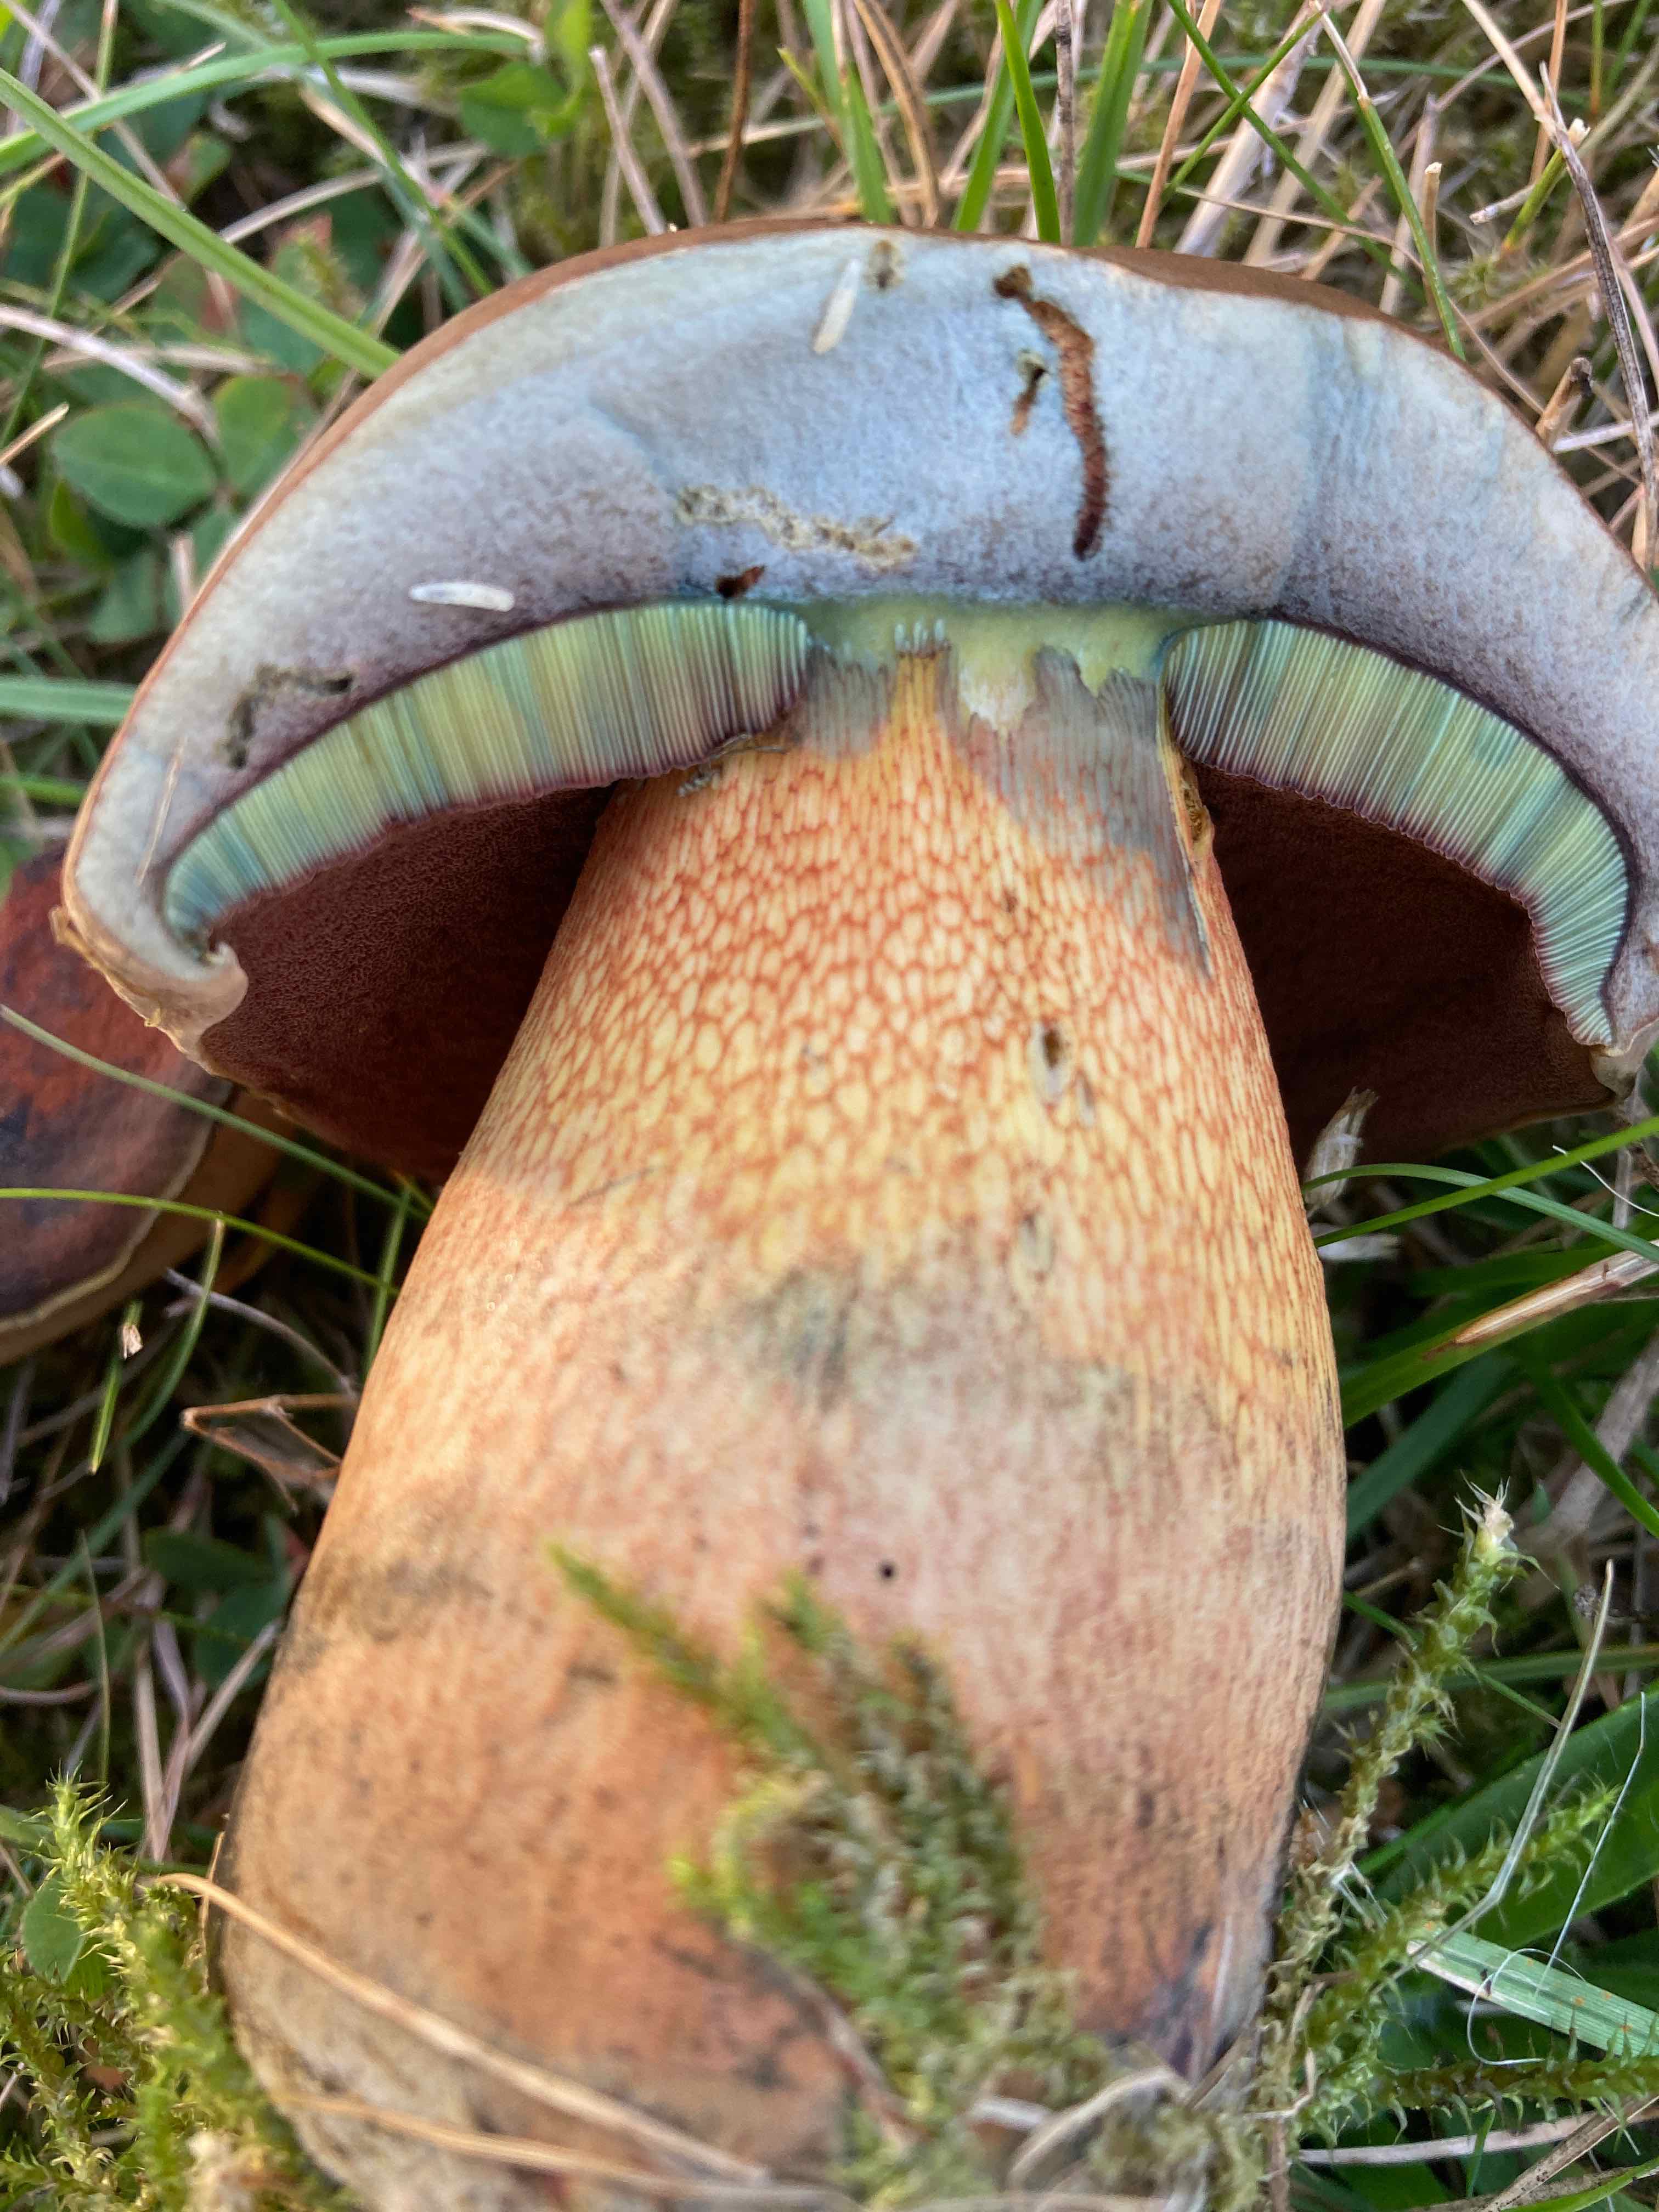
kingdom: Fungi
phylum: Basidiomycota
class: Agaricomycetes
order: Boletales
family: Boletaceae
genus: Suillellus
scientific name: Suillellus luridus
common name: netstokket indigorørhat
